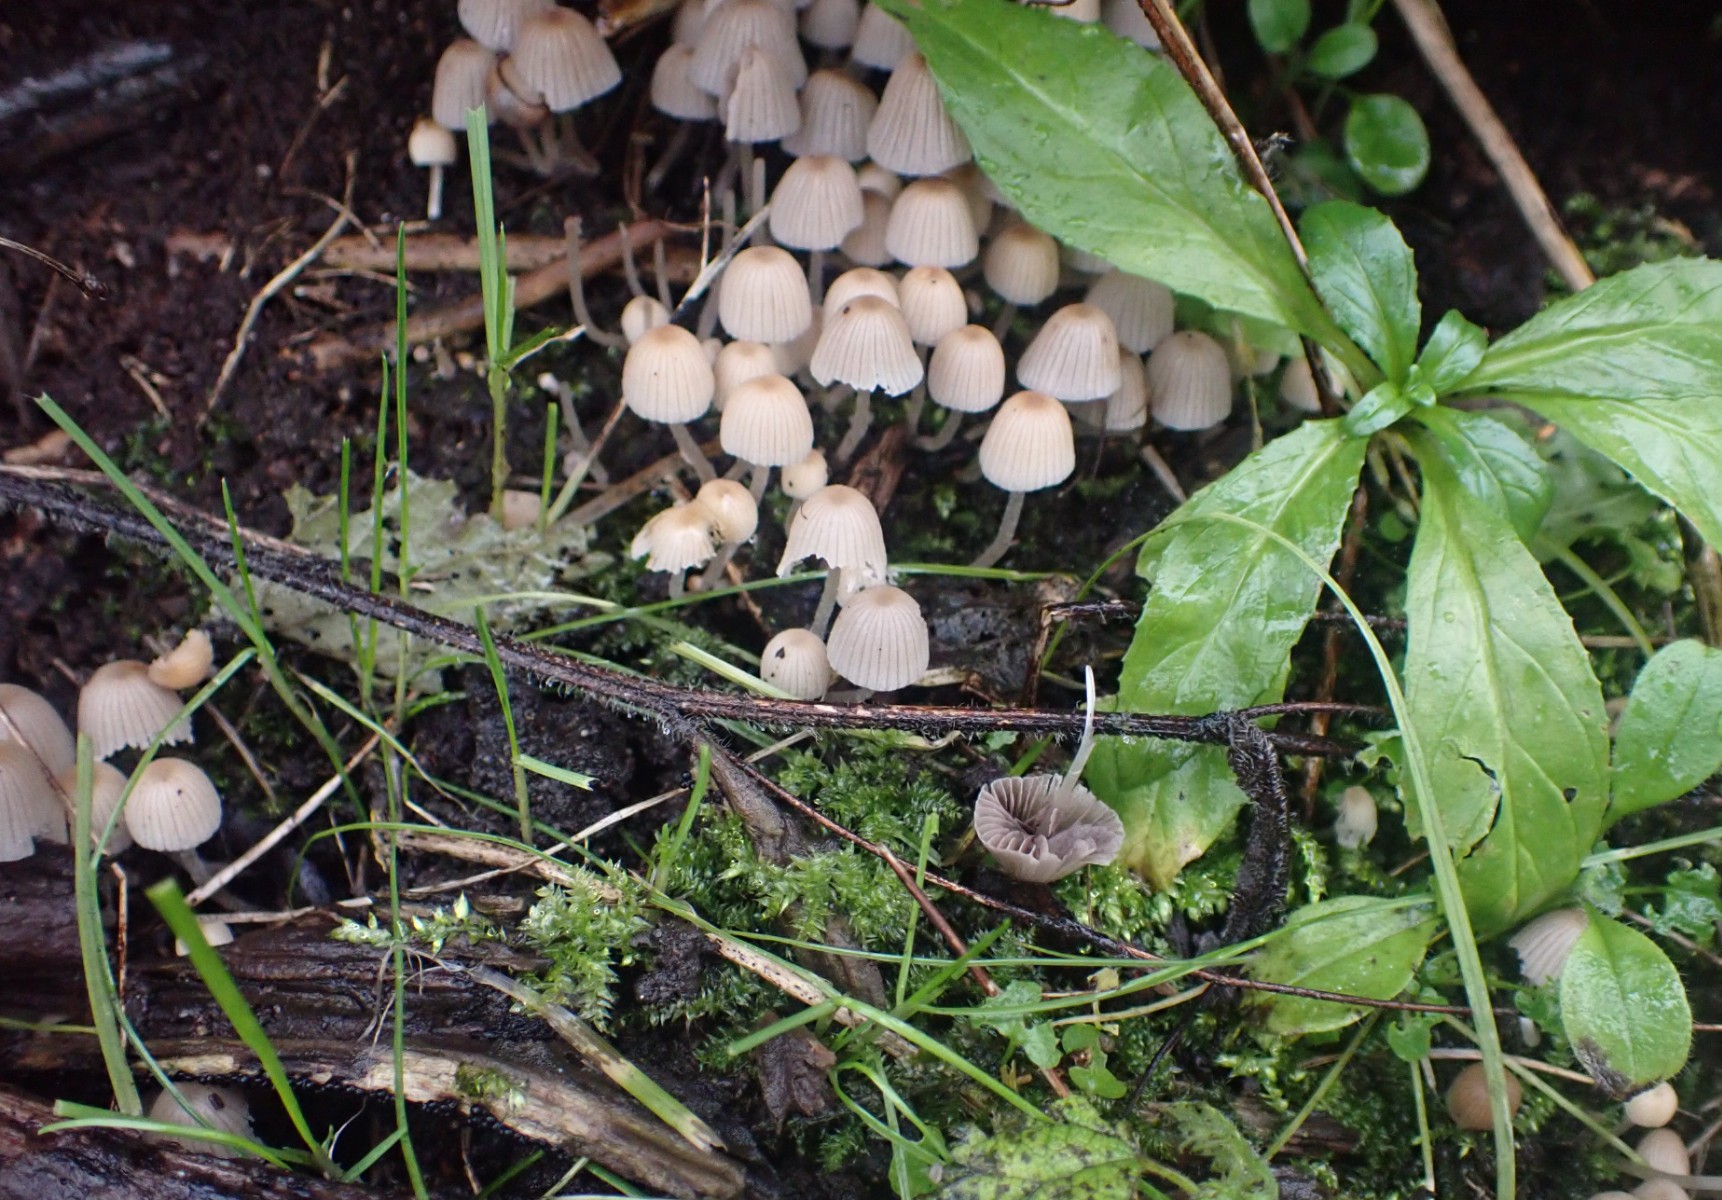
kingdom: Fungi
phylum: Basidiomycota
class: Agaricomycetes
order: Agaricales
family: Psathyrellaceae
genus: Coprinellus
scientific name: Coprinellus disseminatus
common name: bredsået blækhat
